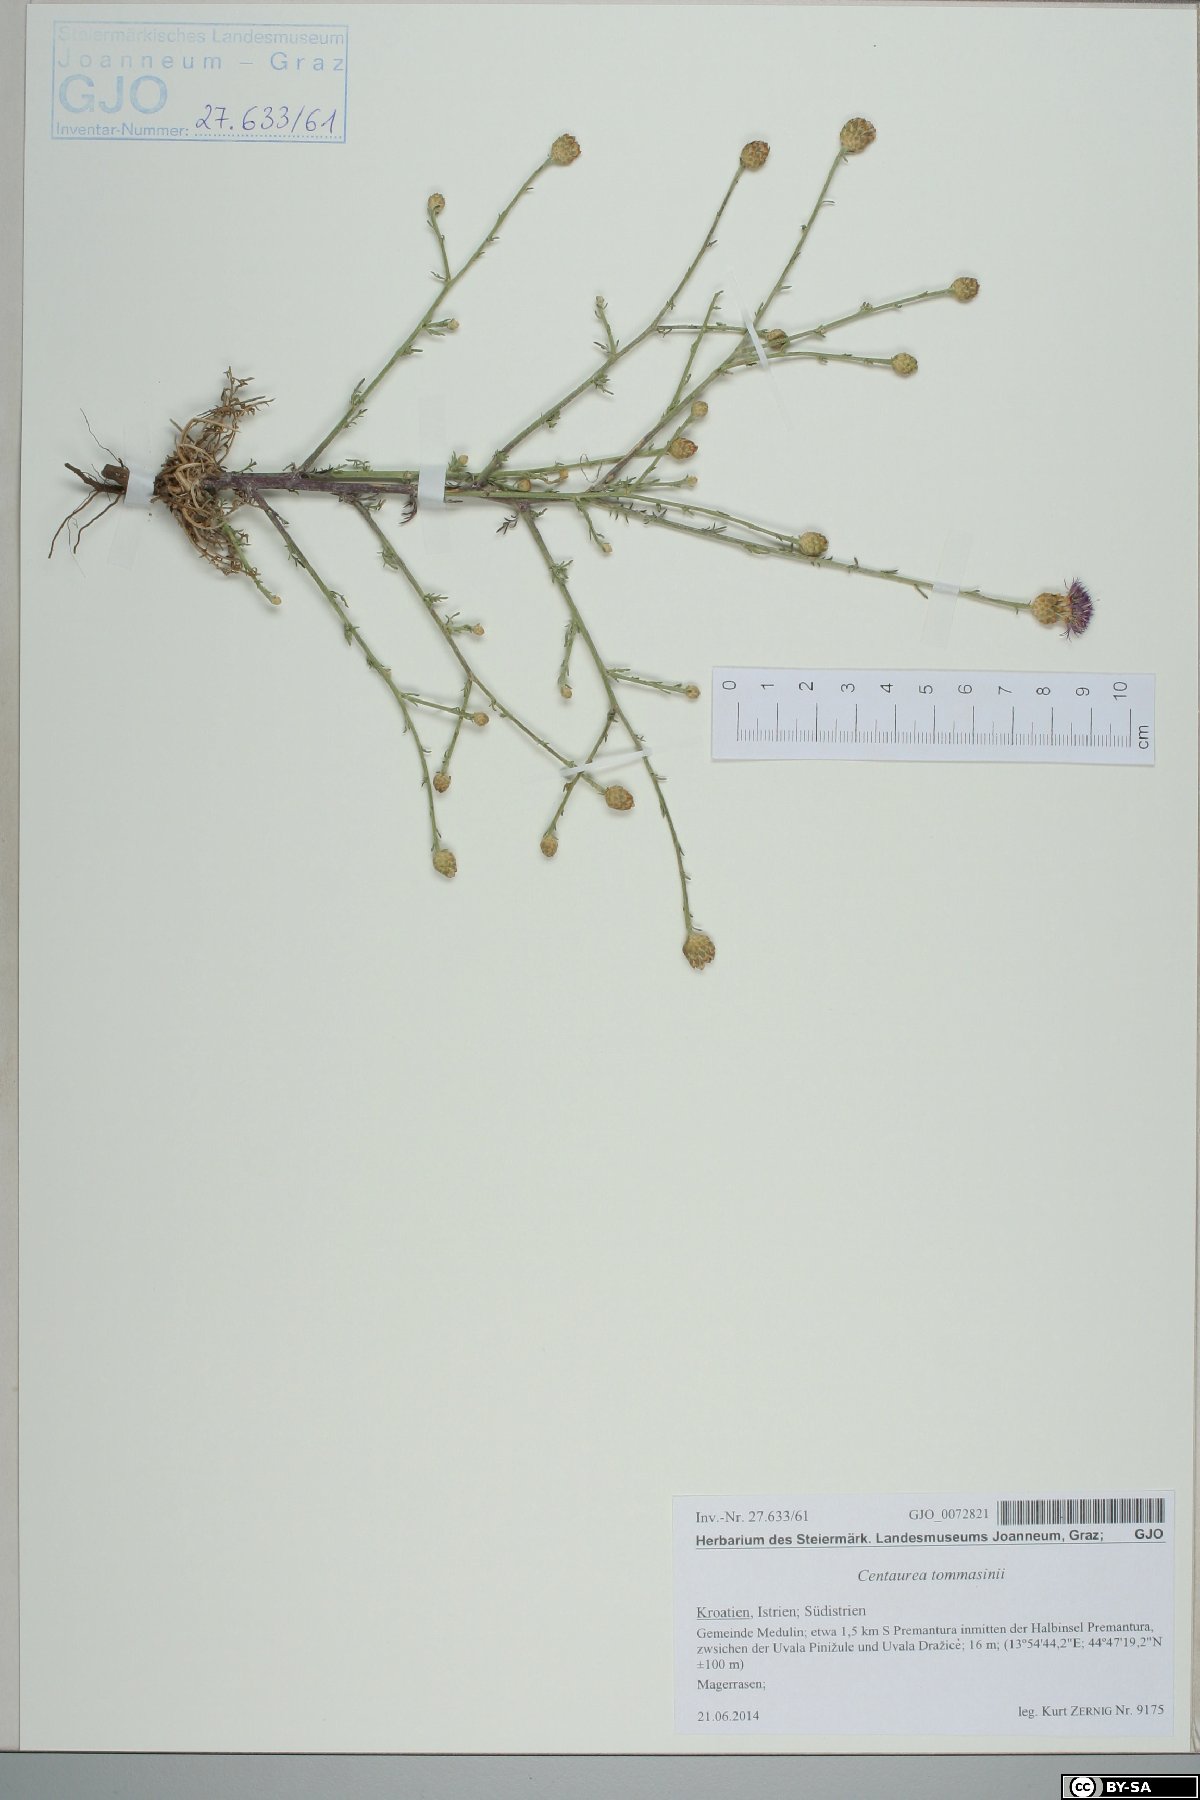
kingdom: Plantae
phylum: Tracheophyta
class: Magnoliopsida
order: Asterales
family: Asteraceae
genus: Centaurea
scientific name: Centaurea tommasinii
